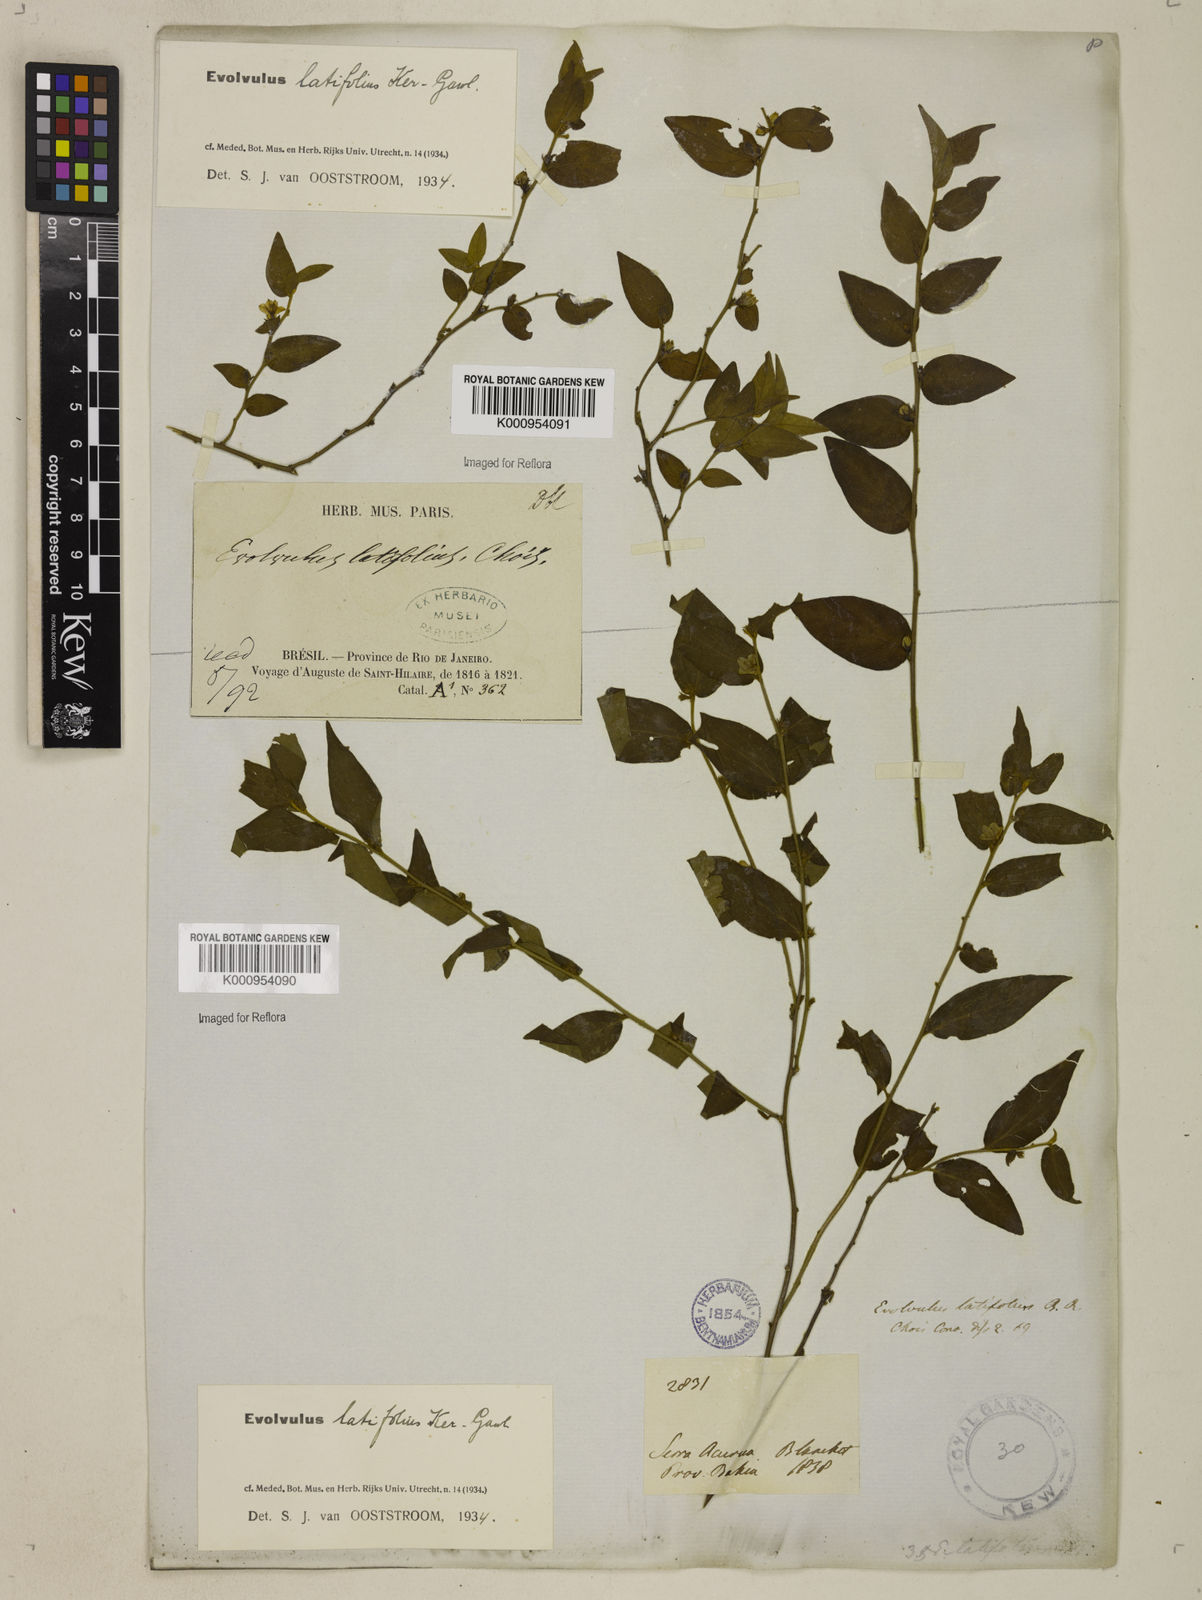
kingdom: Plantae
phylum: Tracheophyta
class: Magnoliopsida
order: Solanales
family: Convolvulaceae
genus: Evolvulus
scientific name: Evolvulus latifolius
